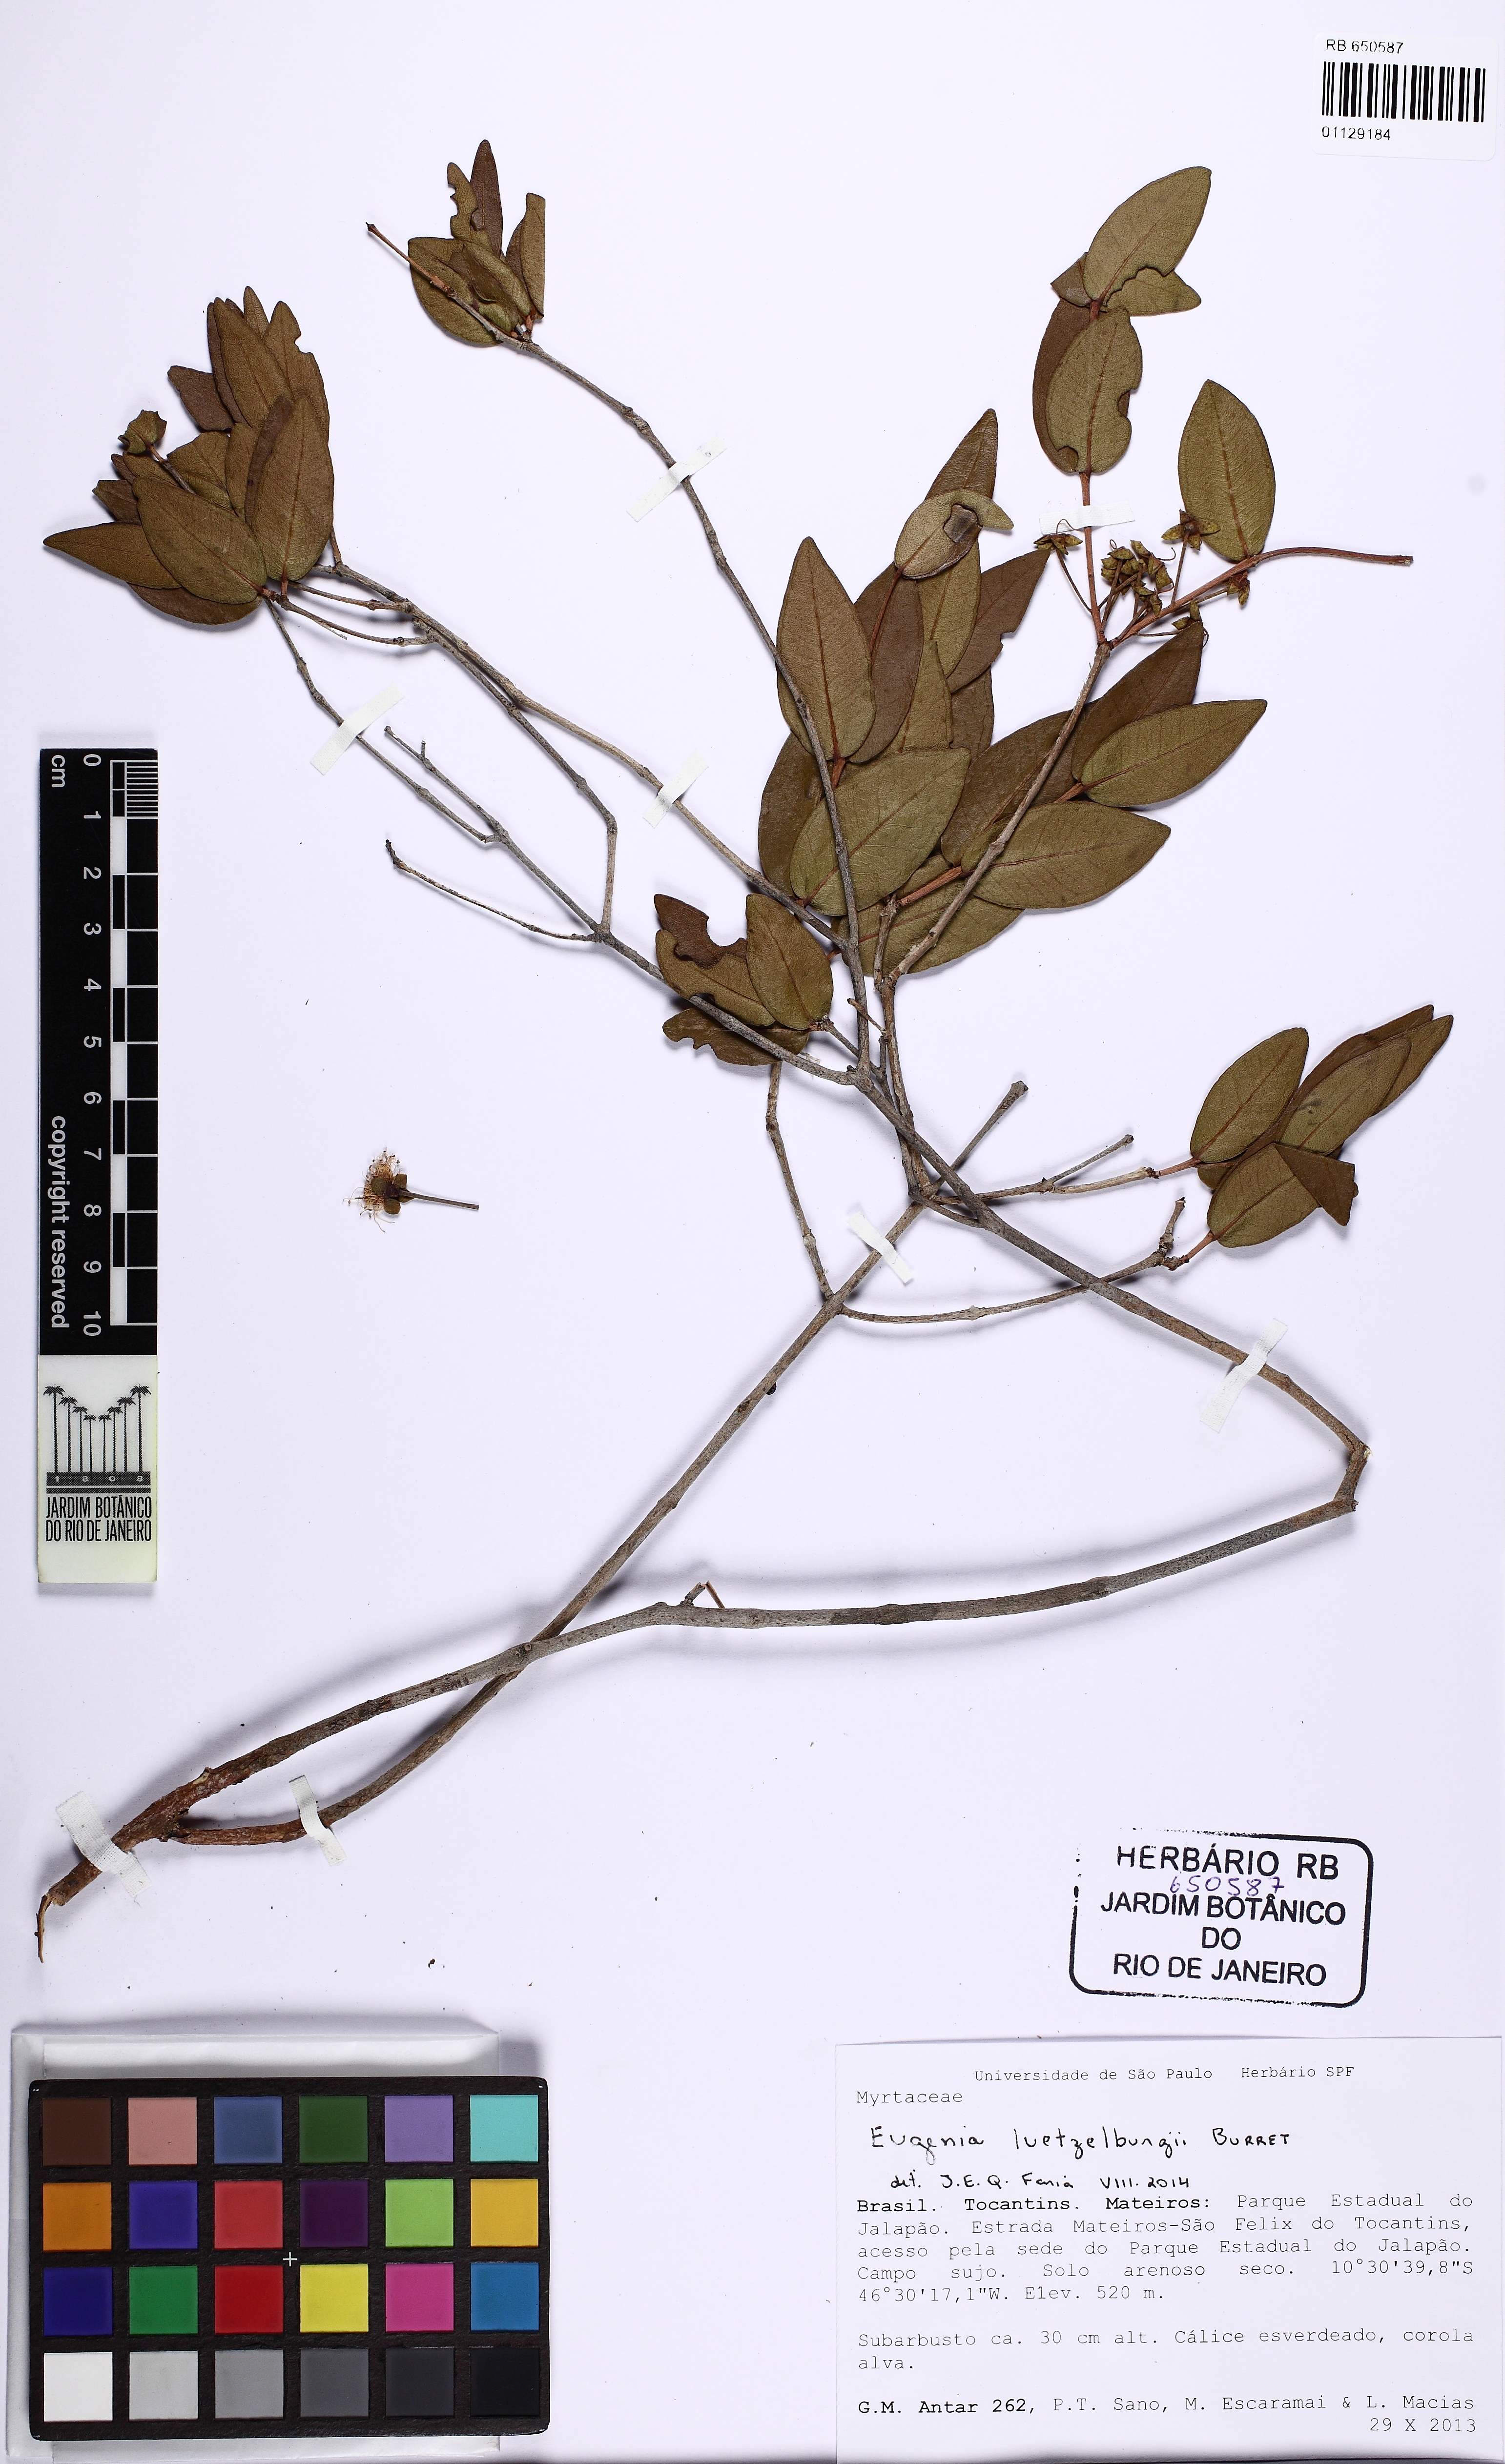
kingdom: Plantae
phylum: Tracheophyta
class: Magnoliopsida
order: Myrtales
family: Myrtaceae
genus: Eugenia
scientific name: Eugenia luetzelburgii
